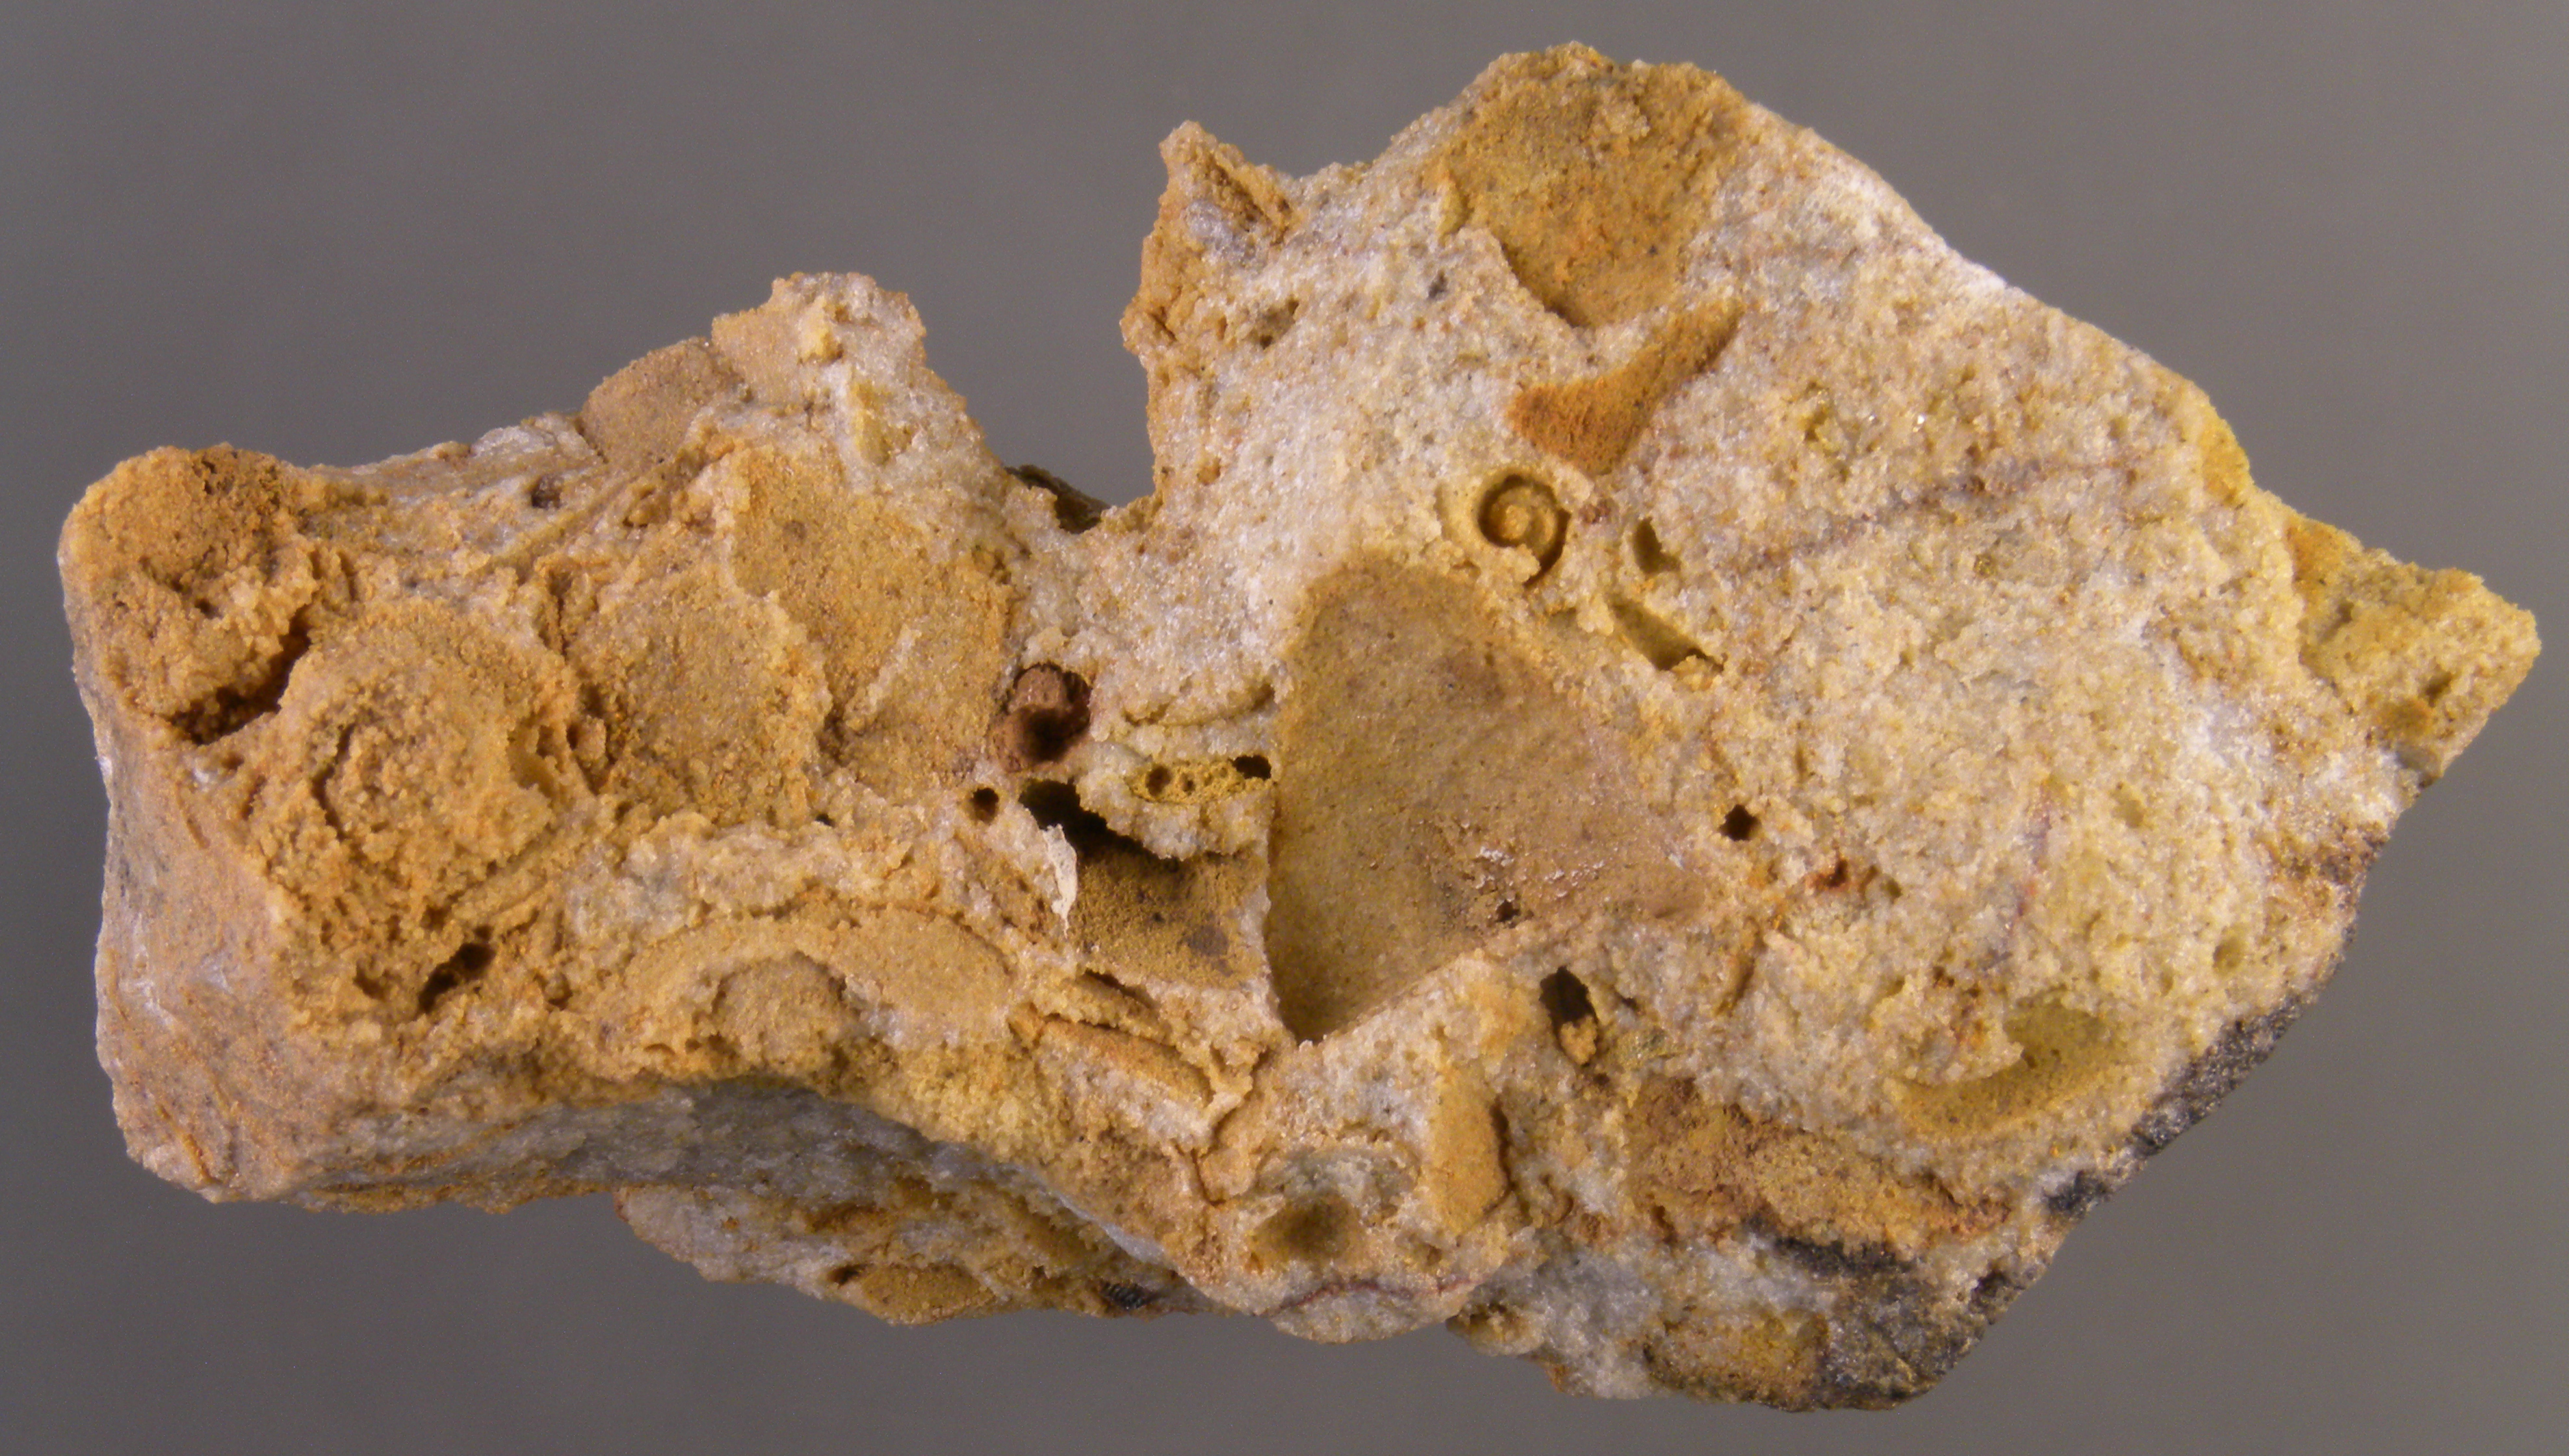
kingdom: Animalia
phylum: Mollusca
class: Bivalvia
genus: Rhenanomya
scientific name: Rhenanomya
